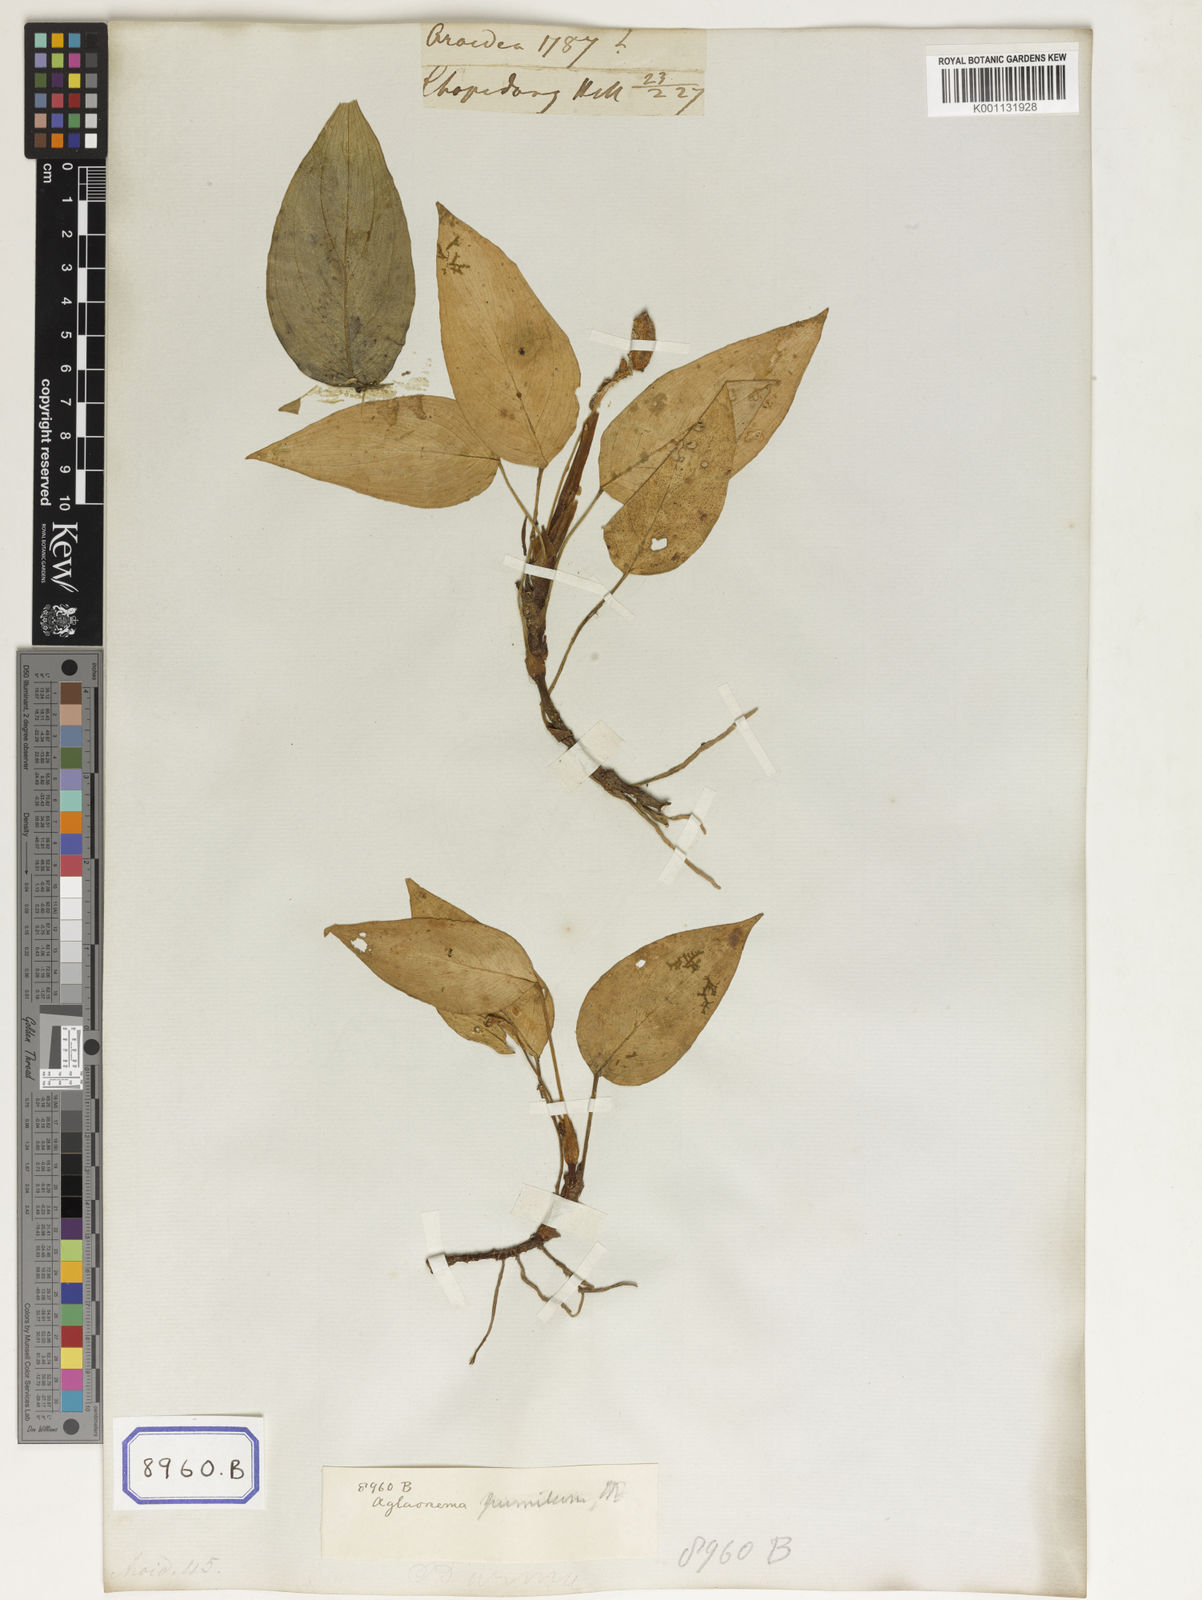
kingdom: Plantae
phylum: Tracheophyta
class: Liliopsida
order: Alismatales
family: Araceae
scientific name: Araceae
